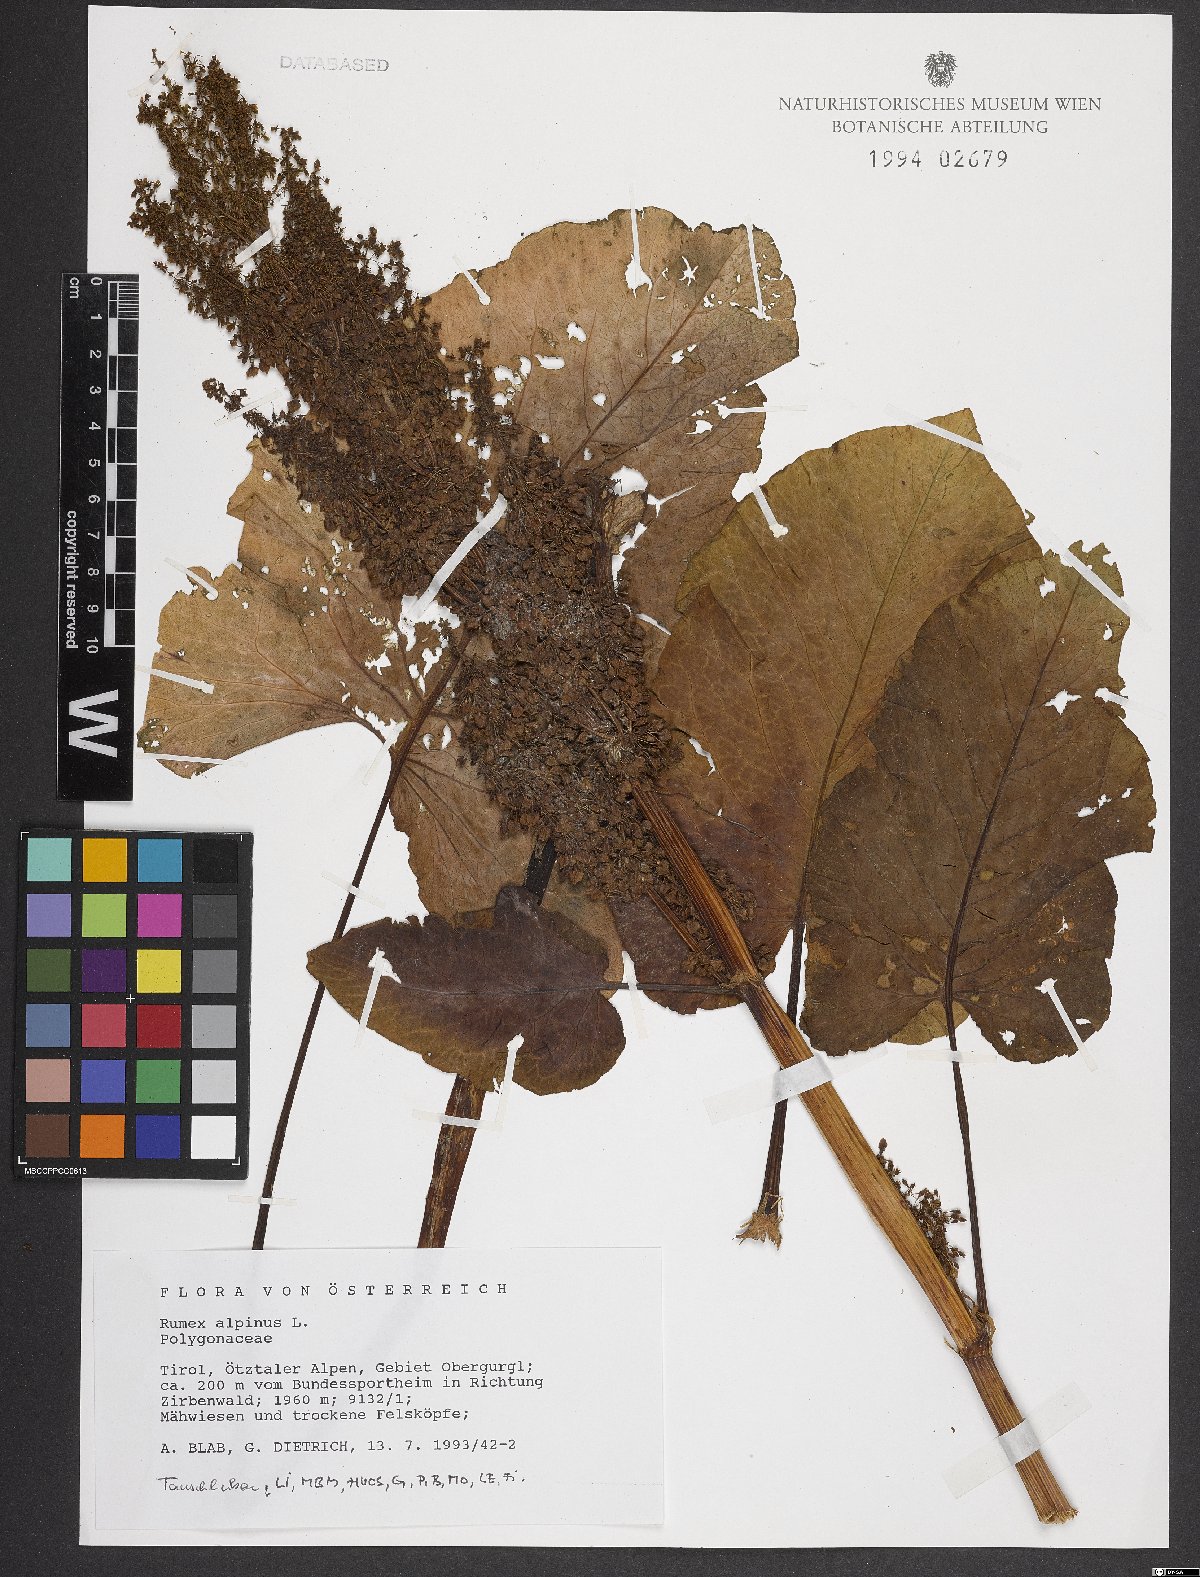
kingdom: Plantae
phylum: Tracheophyta
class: Magnoliopsida
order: Caryophyllales
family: Polygonaceae
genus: Rumex
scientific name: Rumex alpinus
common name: Alpine dock
